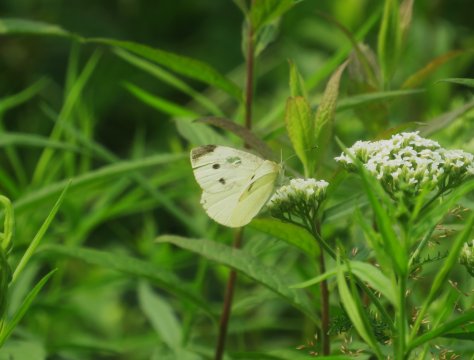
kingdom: Animalia
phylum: Arthropoda
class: Insecta
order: Lepidoptera
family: Pieridae
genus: Pieris
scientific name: Pieris rapae
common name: Cabbage White
